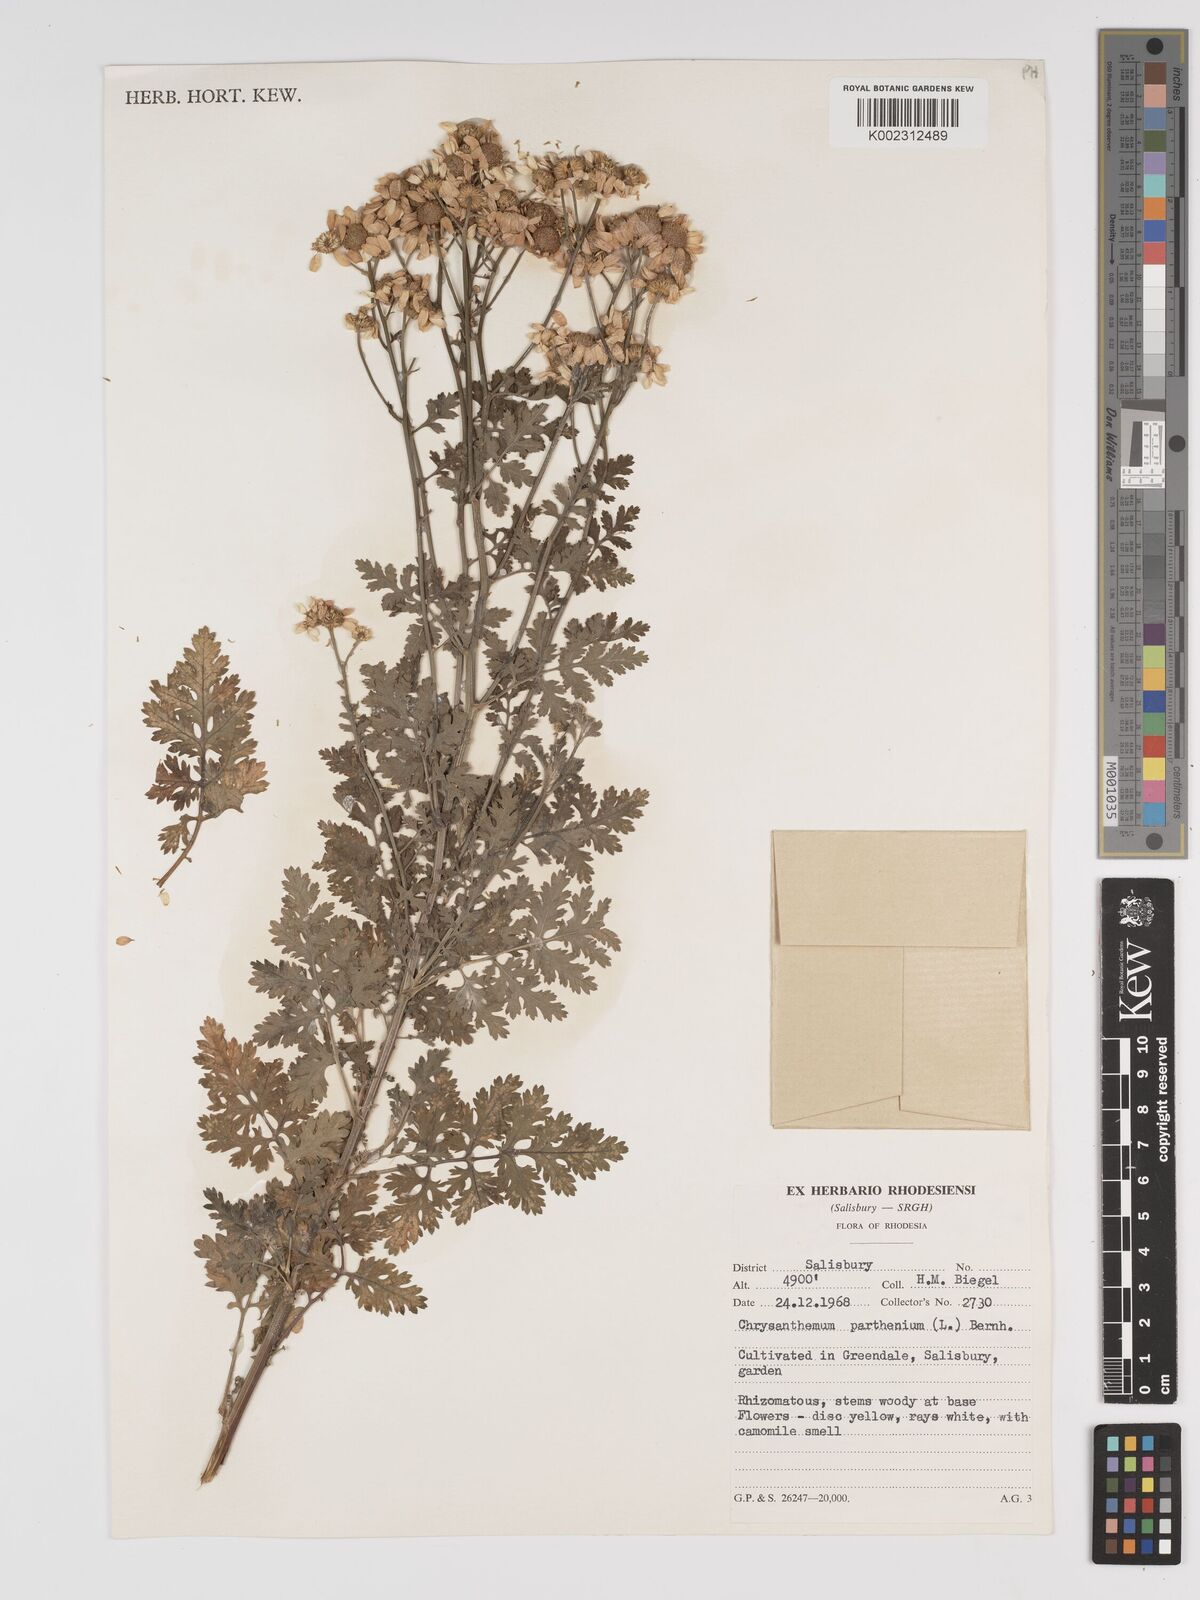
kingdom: Plantae
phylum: Tracheophyta
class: Magnoliopsida
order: Asterales
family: Asteraceae
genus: Tanacetum
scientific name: Tanacetum parthenium
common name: Feverfew
